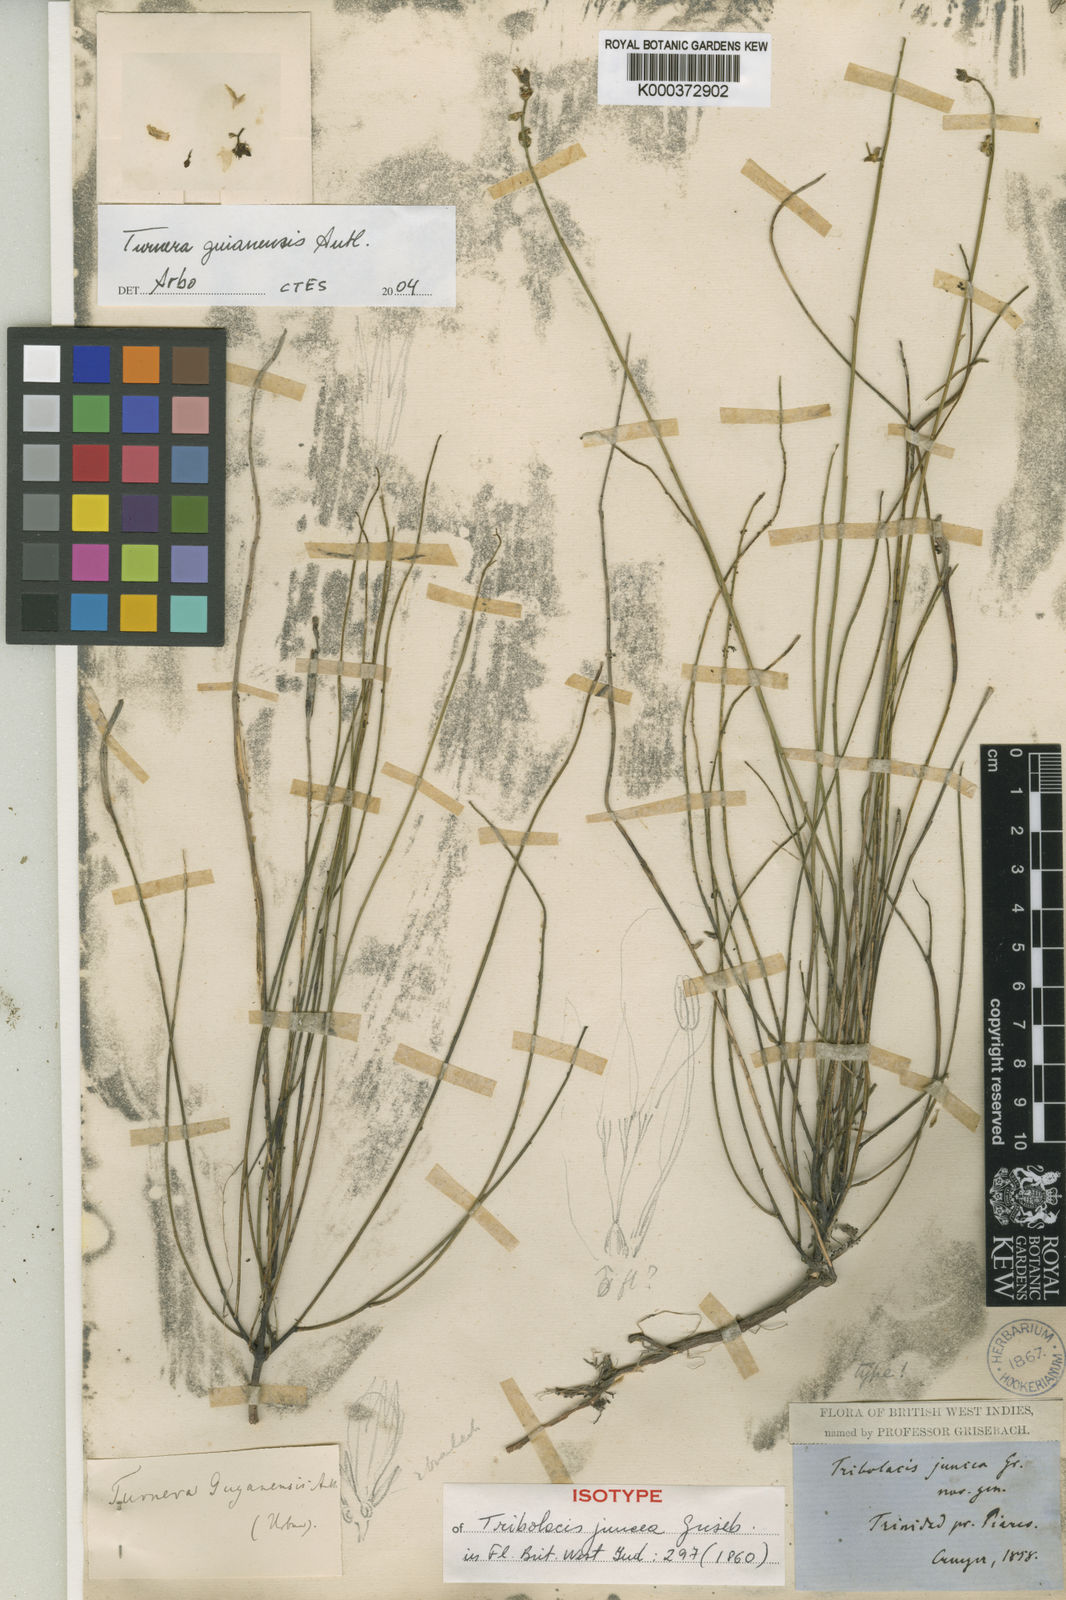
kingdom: Plantae
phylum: Tracheophyta
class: Magnoliopsida
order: Malpighiales
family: Turneraceae
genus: Turnera
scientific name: Turnera guianensis
